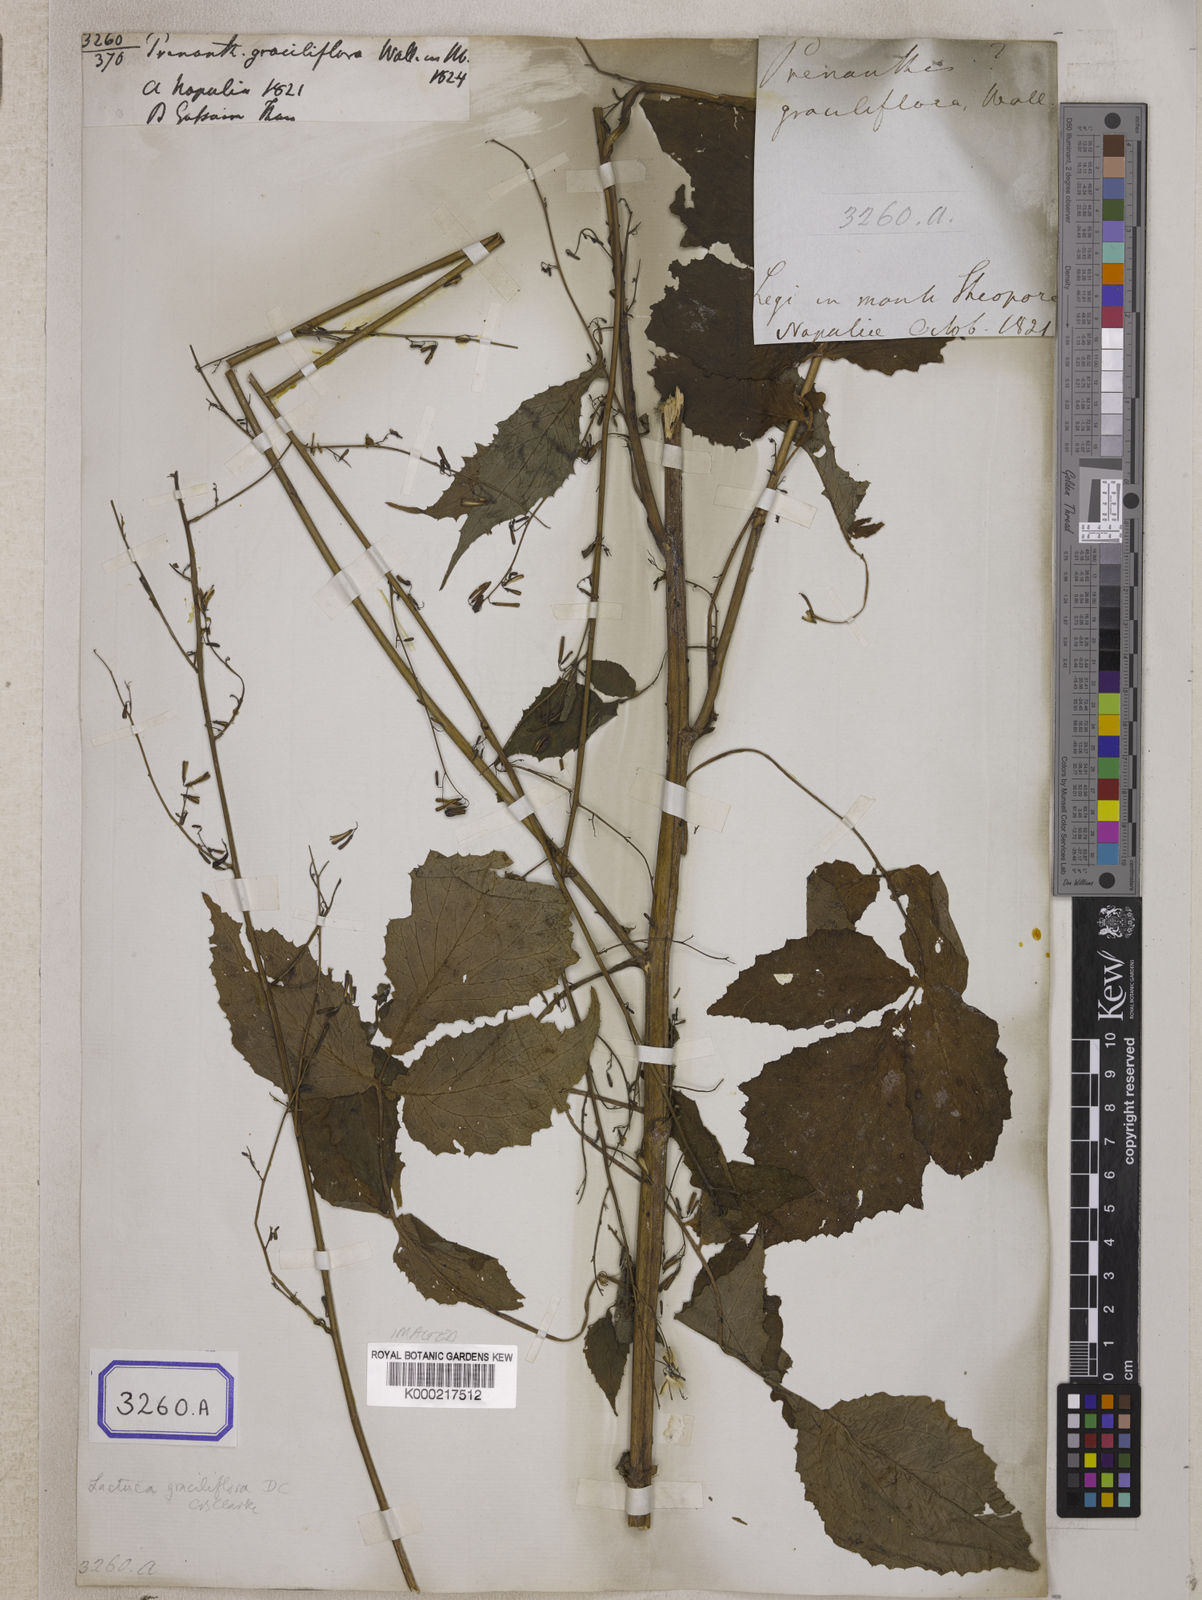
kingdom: Plantae
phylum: Tracheophyta
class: Magnoliopsida
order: Asterales
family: Asteraceae
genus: Melanoseris
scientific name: Melanoseris graciliflora
